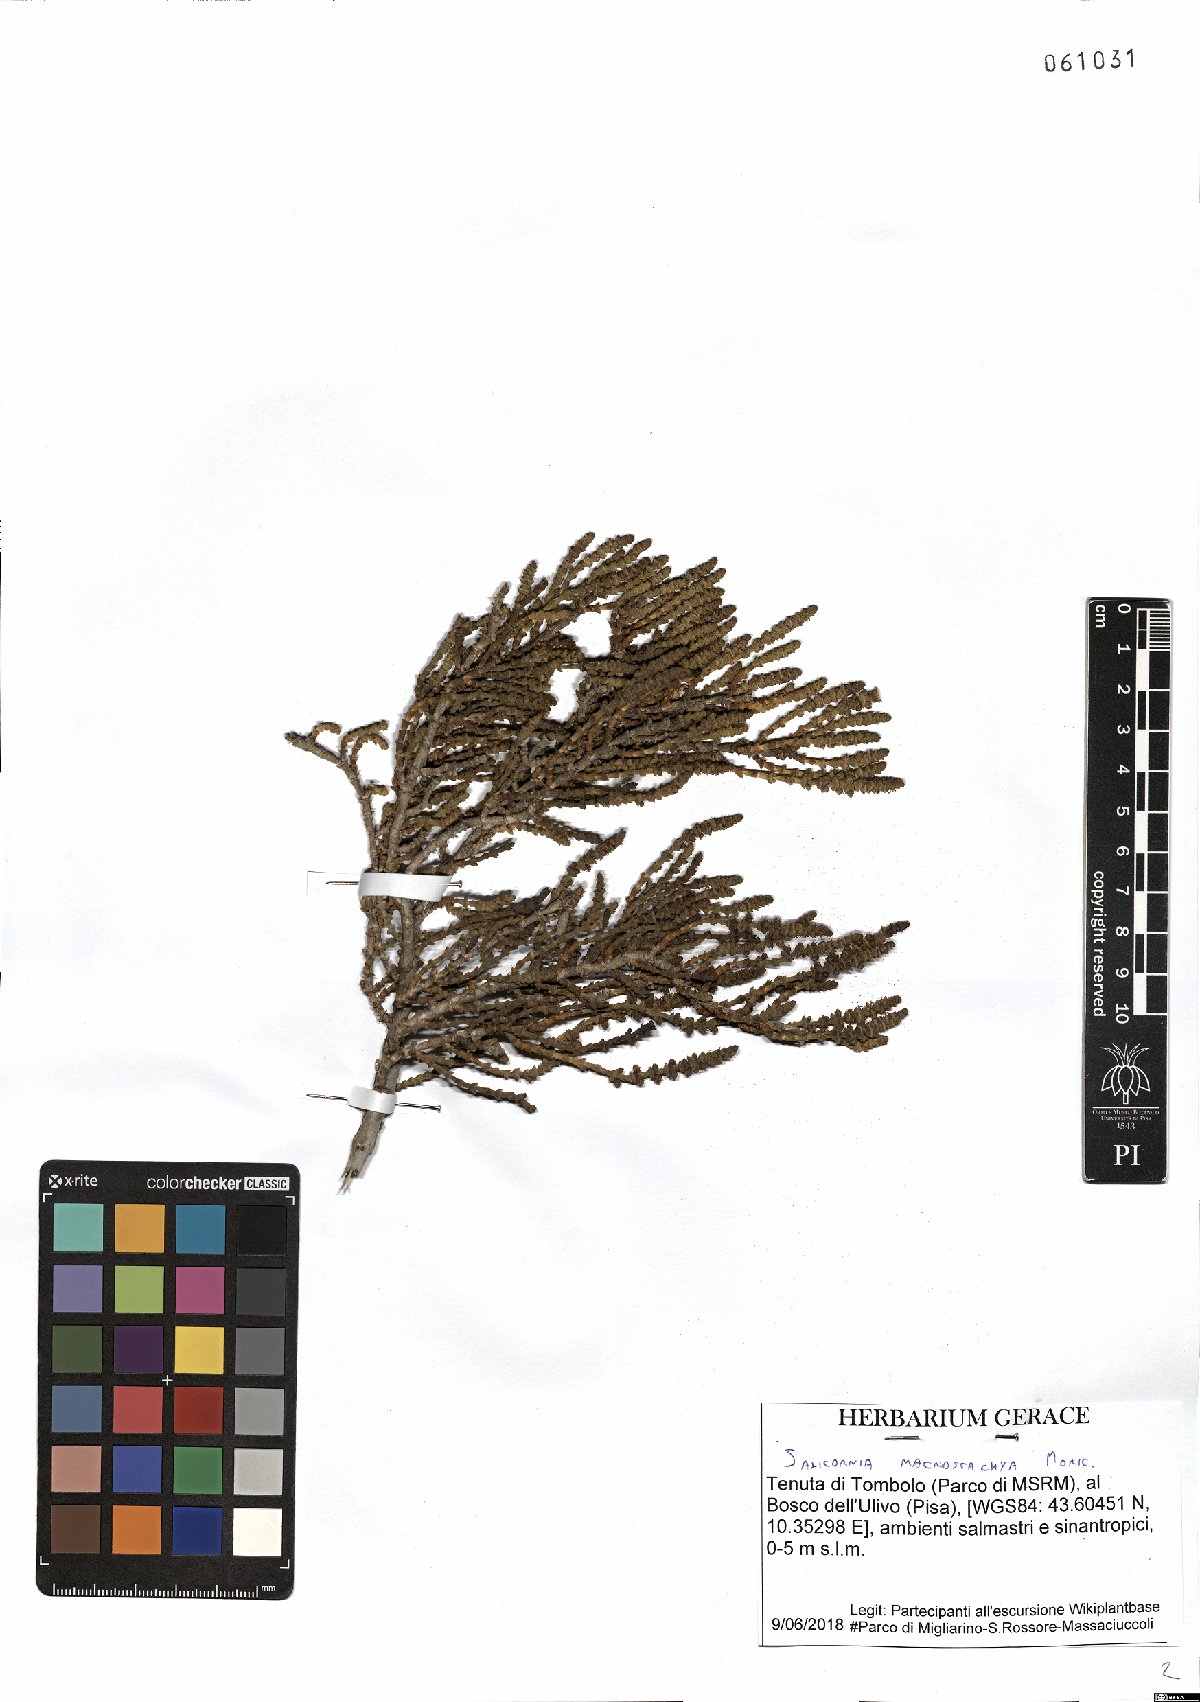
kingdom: Plantae
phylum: Tracheophyta
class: Magnoliopsida
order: Caryophyllales
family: Amaranthaceae
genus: Arthrocaulon
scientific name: Arthrocaulon macrostachyum
